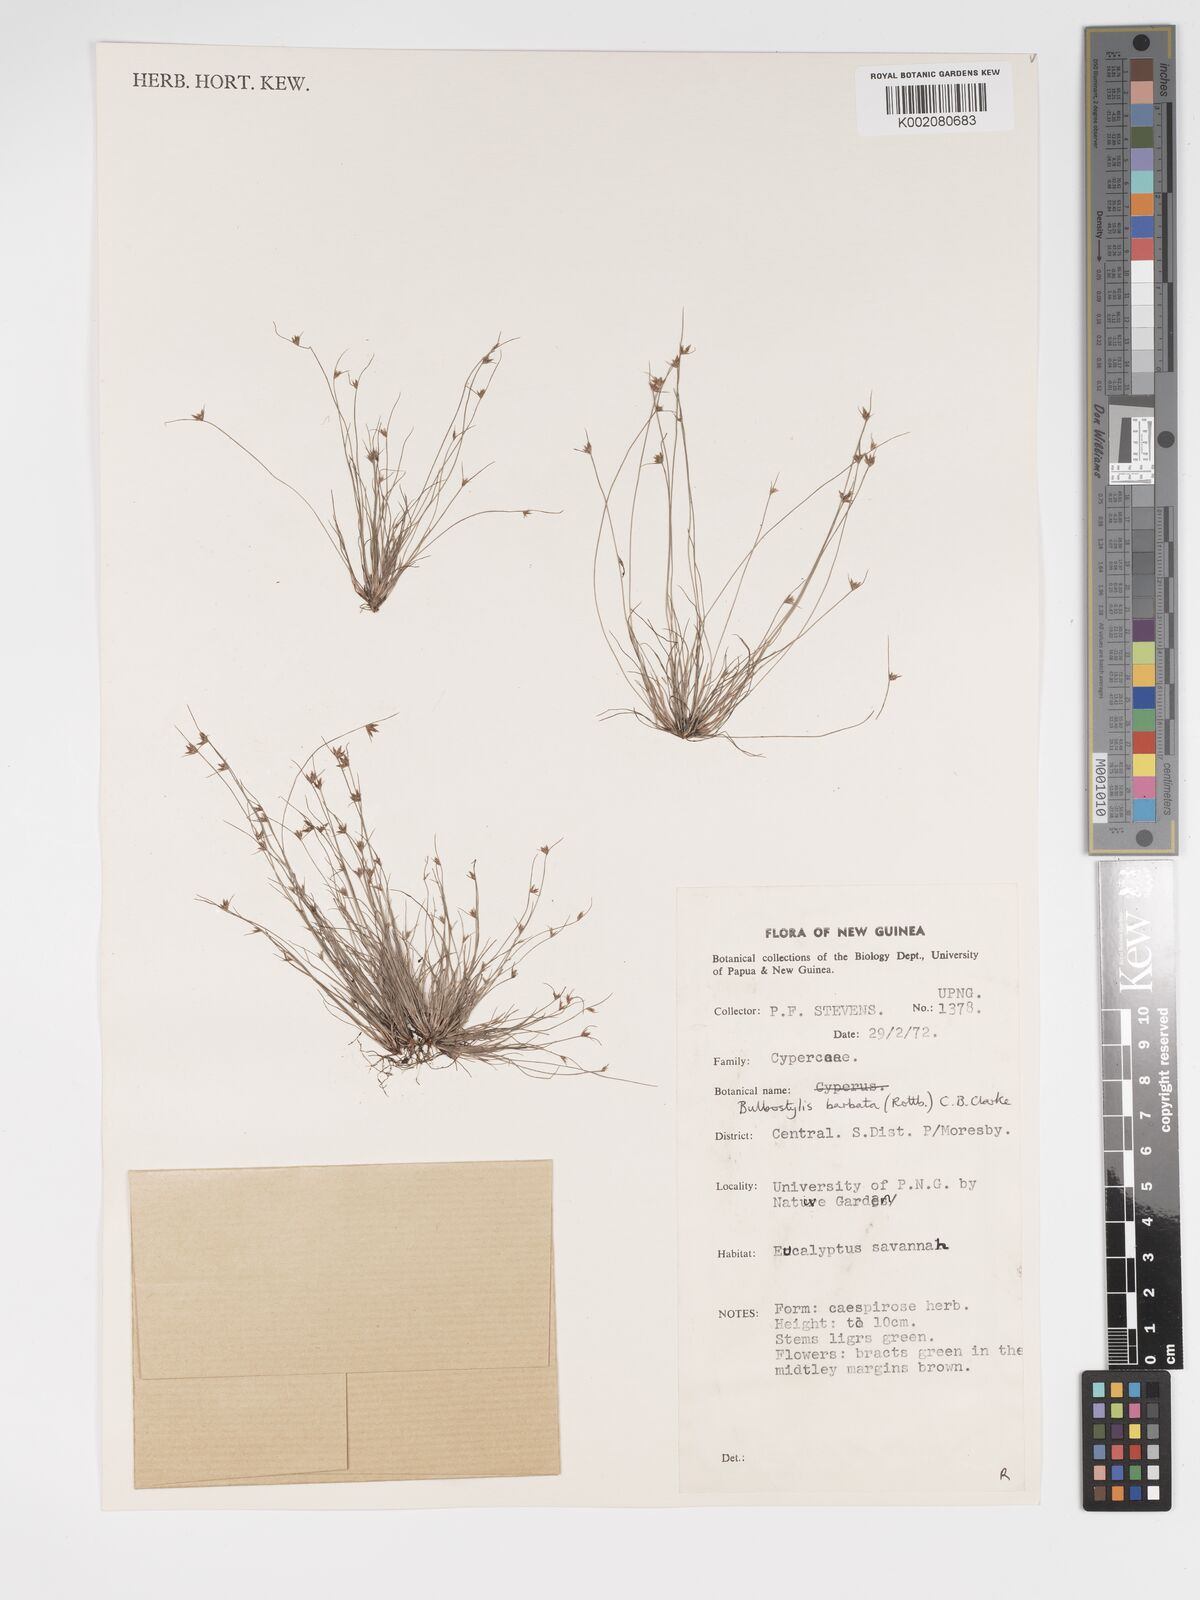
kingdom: Plantae
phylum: Tracheophyta
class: Liliopsida
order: Poales
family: Cyperaceae
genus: Bulbostylis
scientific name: Bulbostylis barbata
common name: Watergrass
